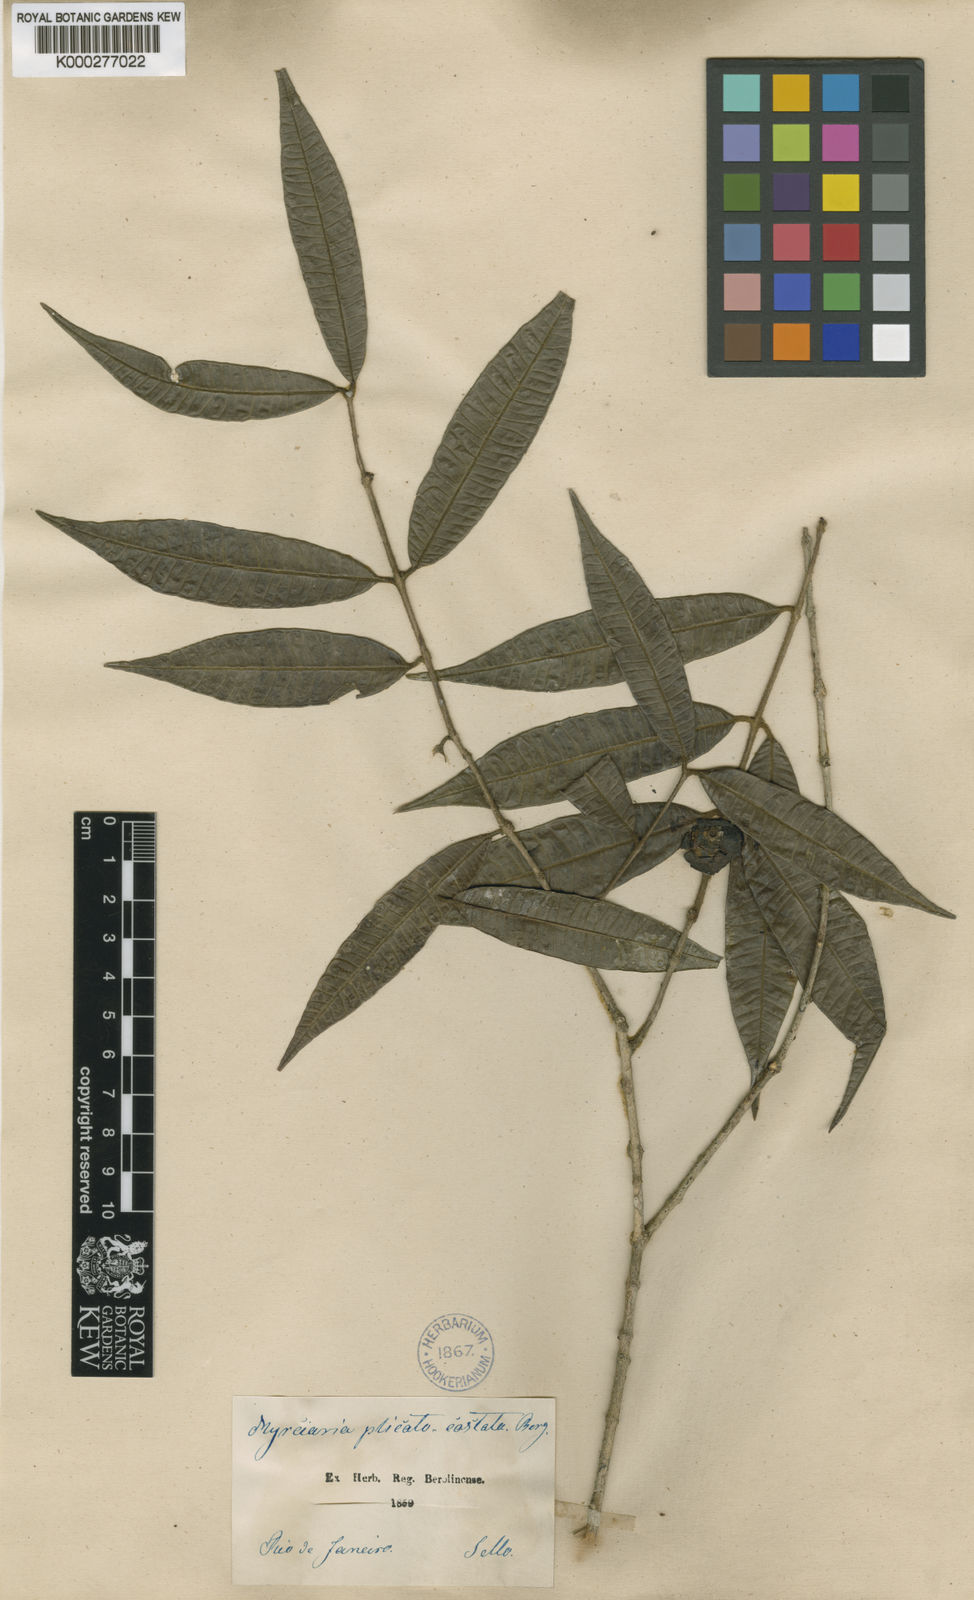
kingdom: Plantae
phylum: Tracheophyta
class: Magnoliopsida
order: Myrtales
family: Myrtaceae
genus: Plinia
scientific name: Plinia edulis
